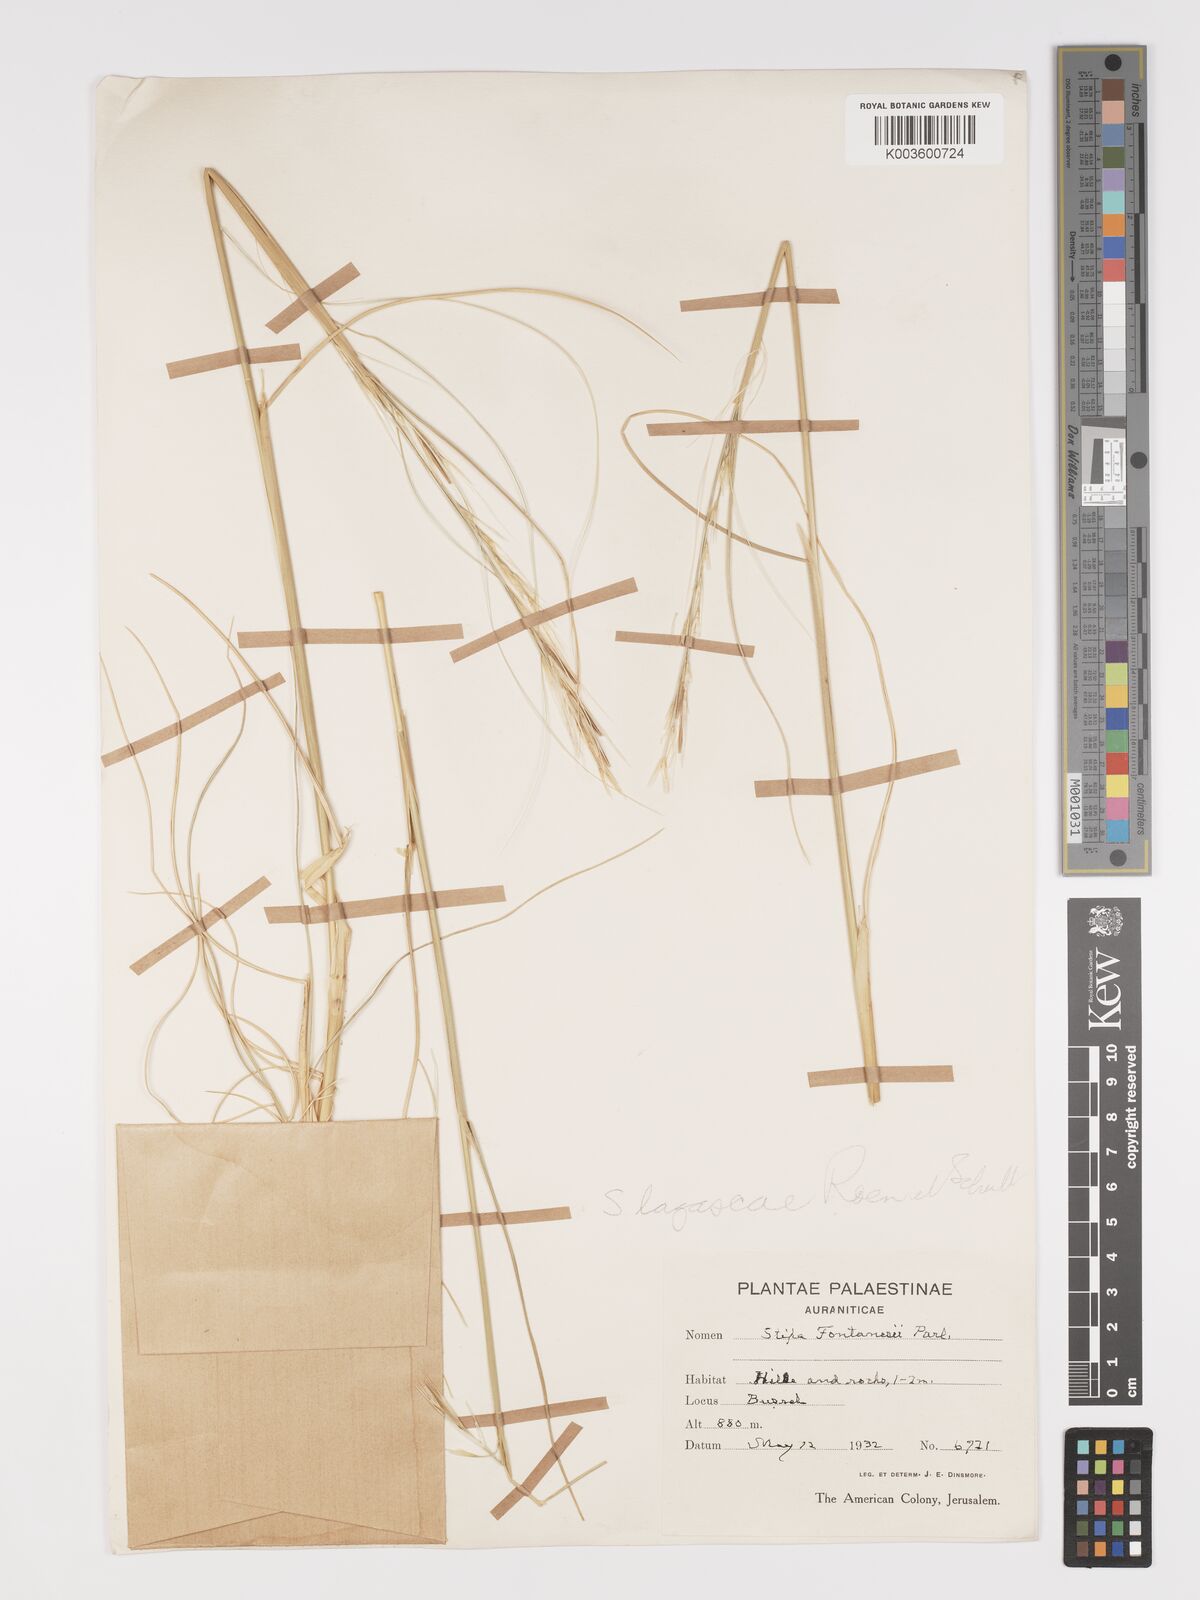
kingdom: Plantae
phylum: Tracheophyta
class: Liliopsida
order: Poales
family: Poaceae
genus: Stipa
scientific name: Stipa holosericea
